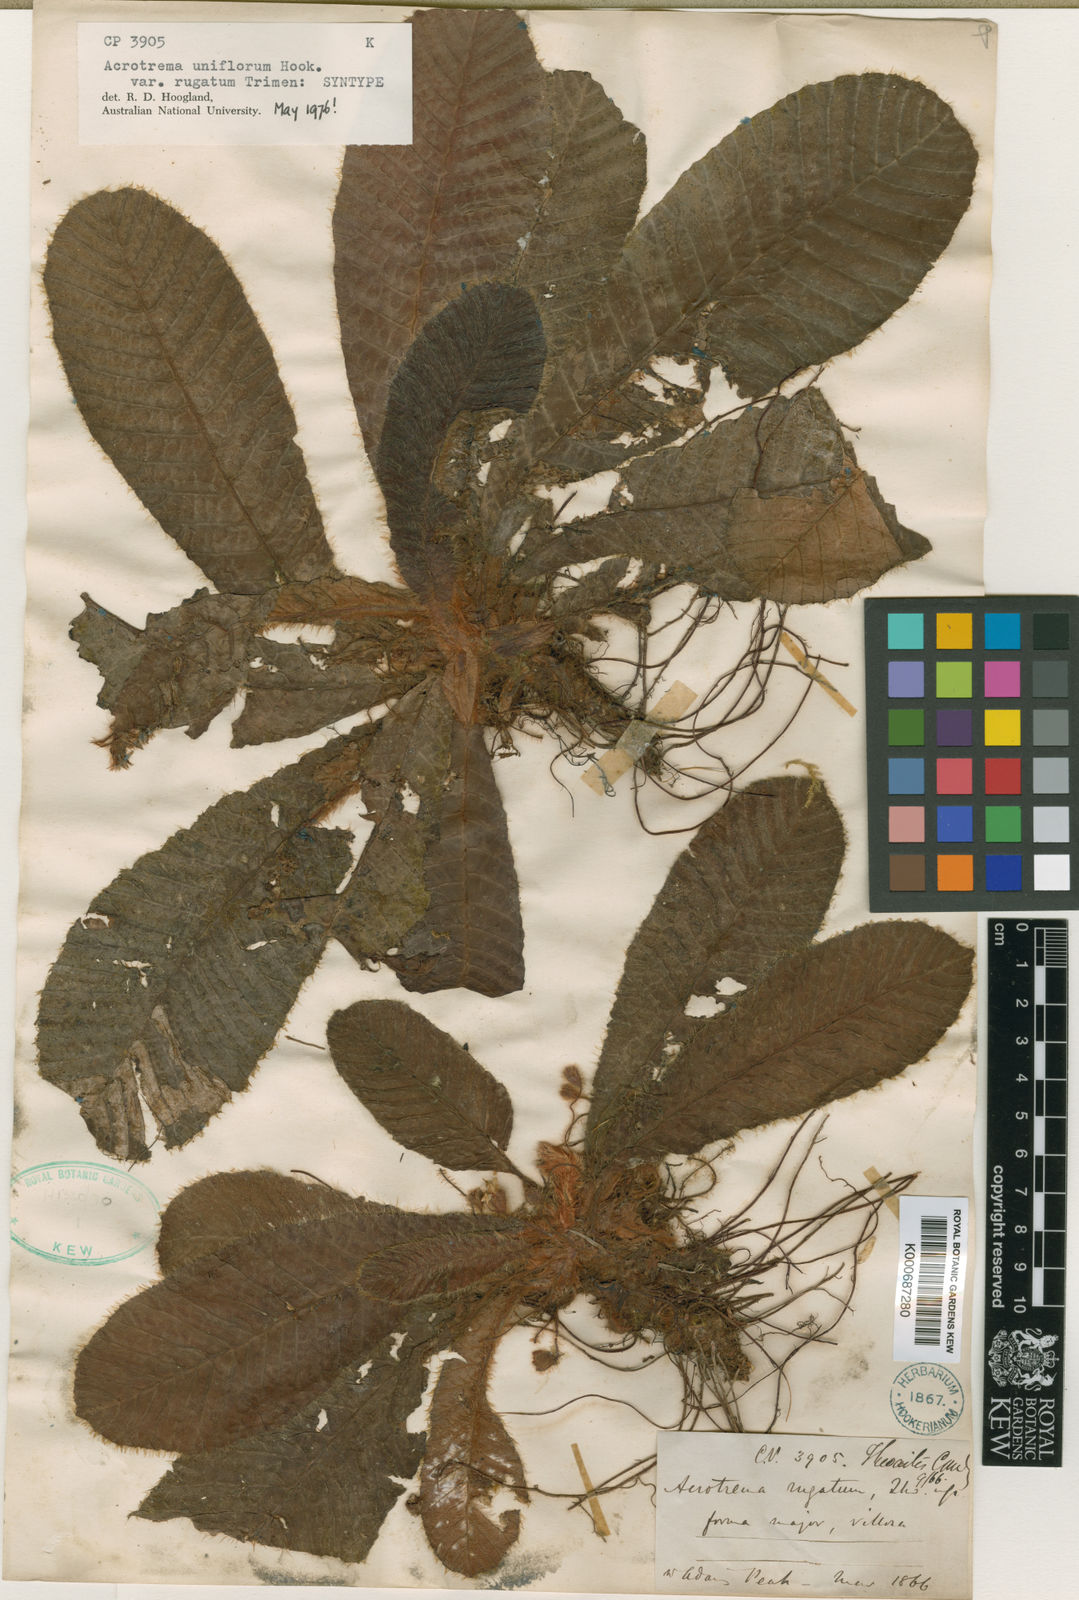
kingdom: Plantae
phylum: Tracheophyta
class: Magnoliopsida
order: Dilleniales
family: Dilleniaceae
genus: Acrotrema
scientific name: Acrotrema
